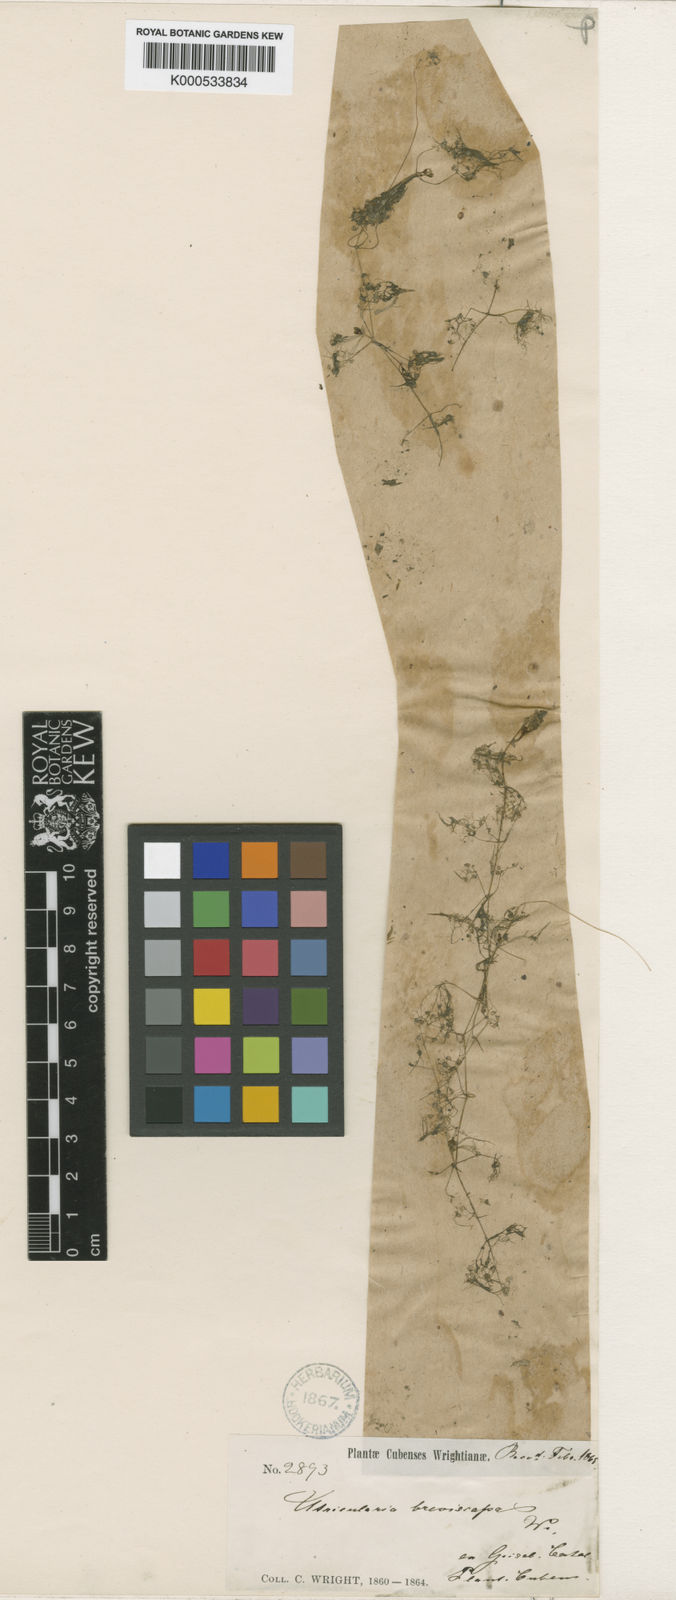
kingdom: Plantae
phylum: Tracheophyta
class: Magnoliopsida
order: Lamiales
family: Lentibulariaceae
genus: Utricularia
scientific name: Utricularia breviscapa
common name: Bladderwort
